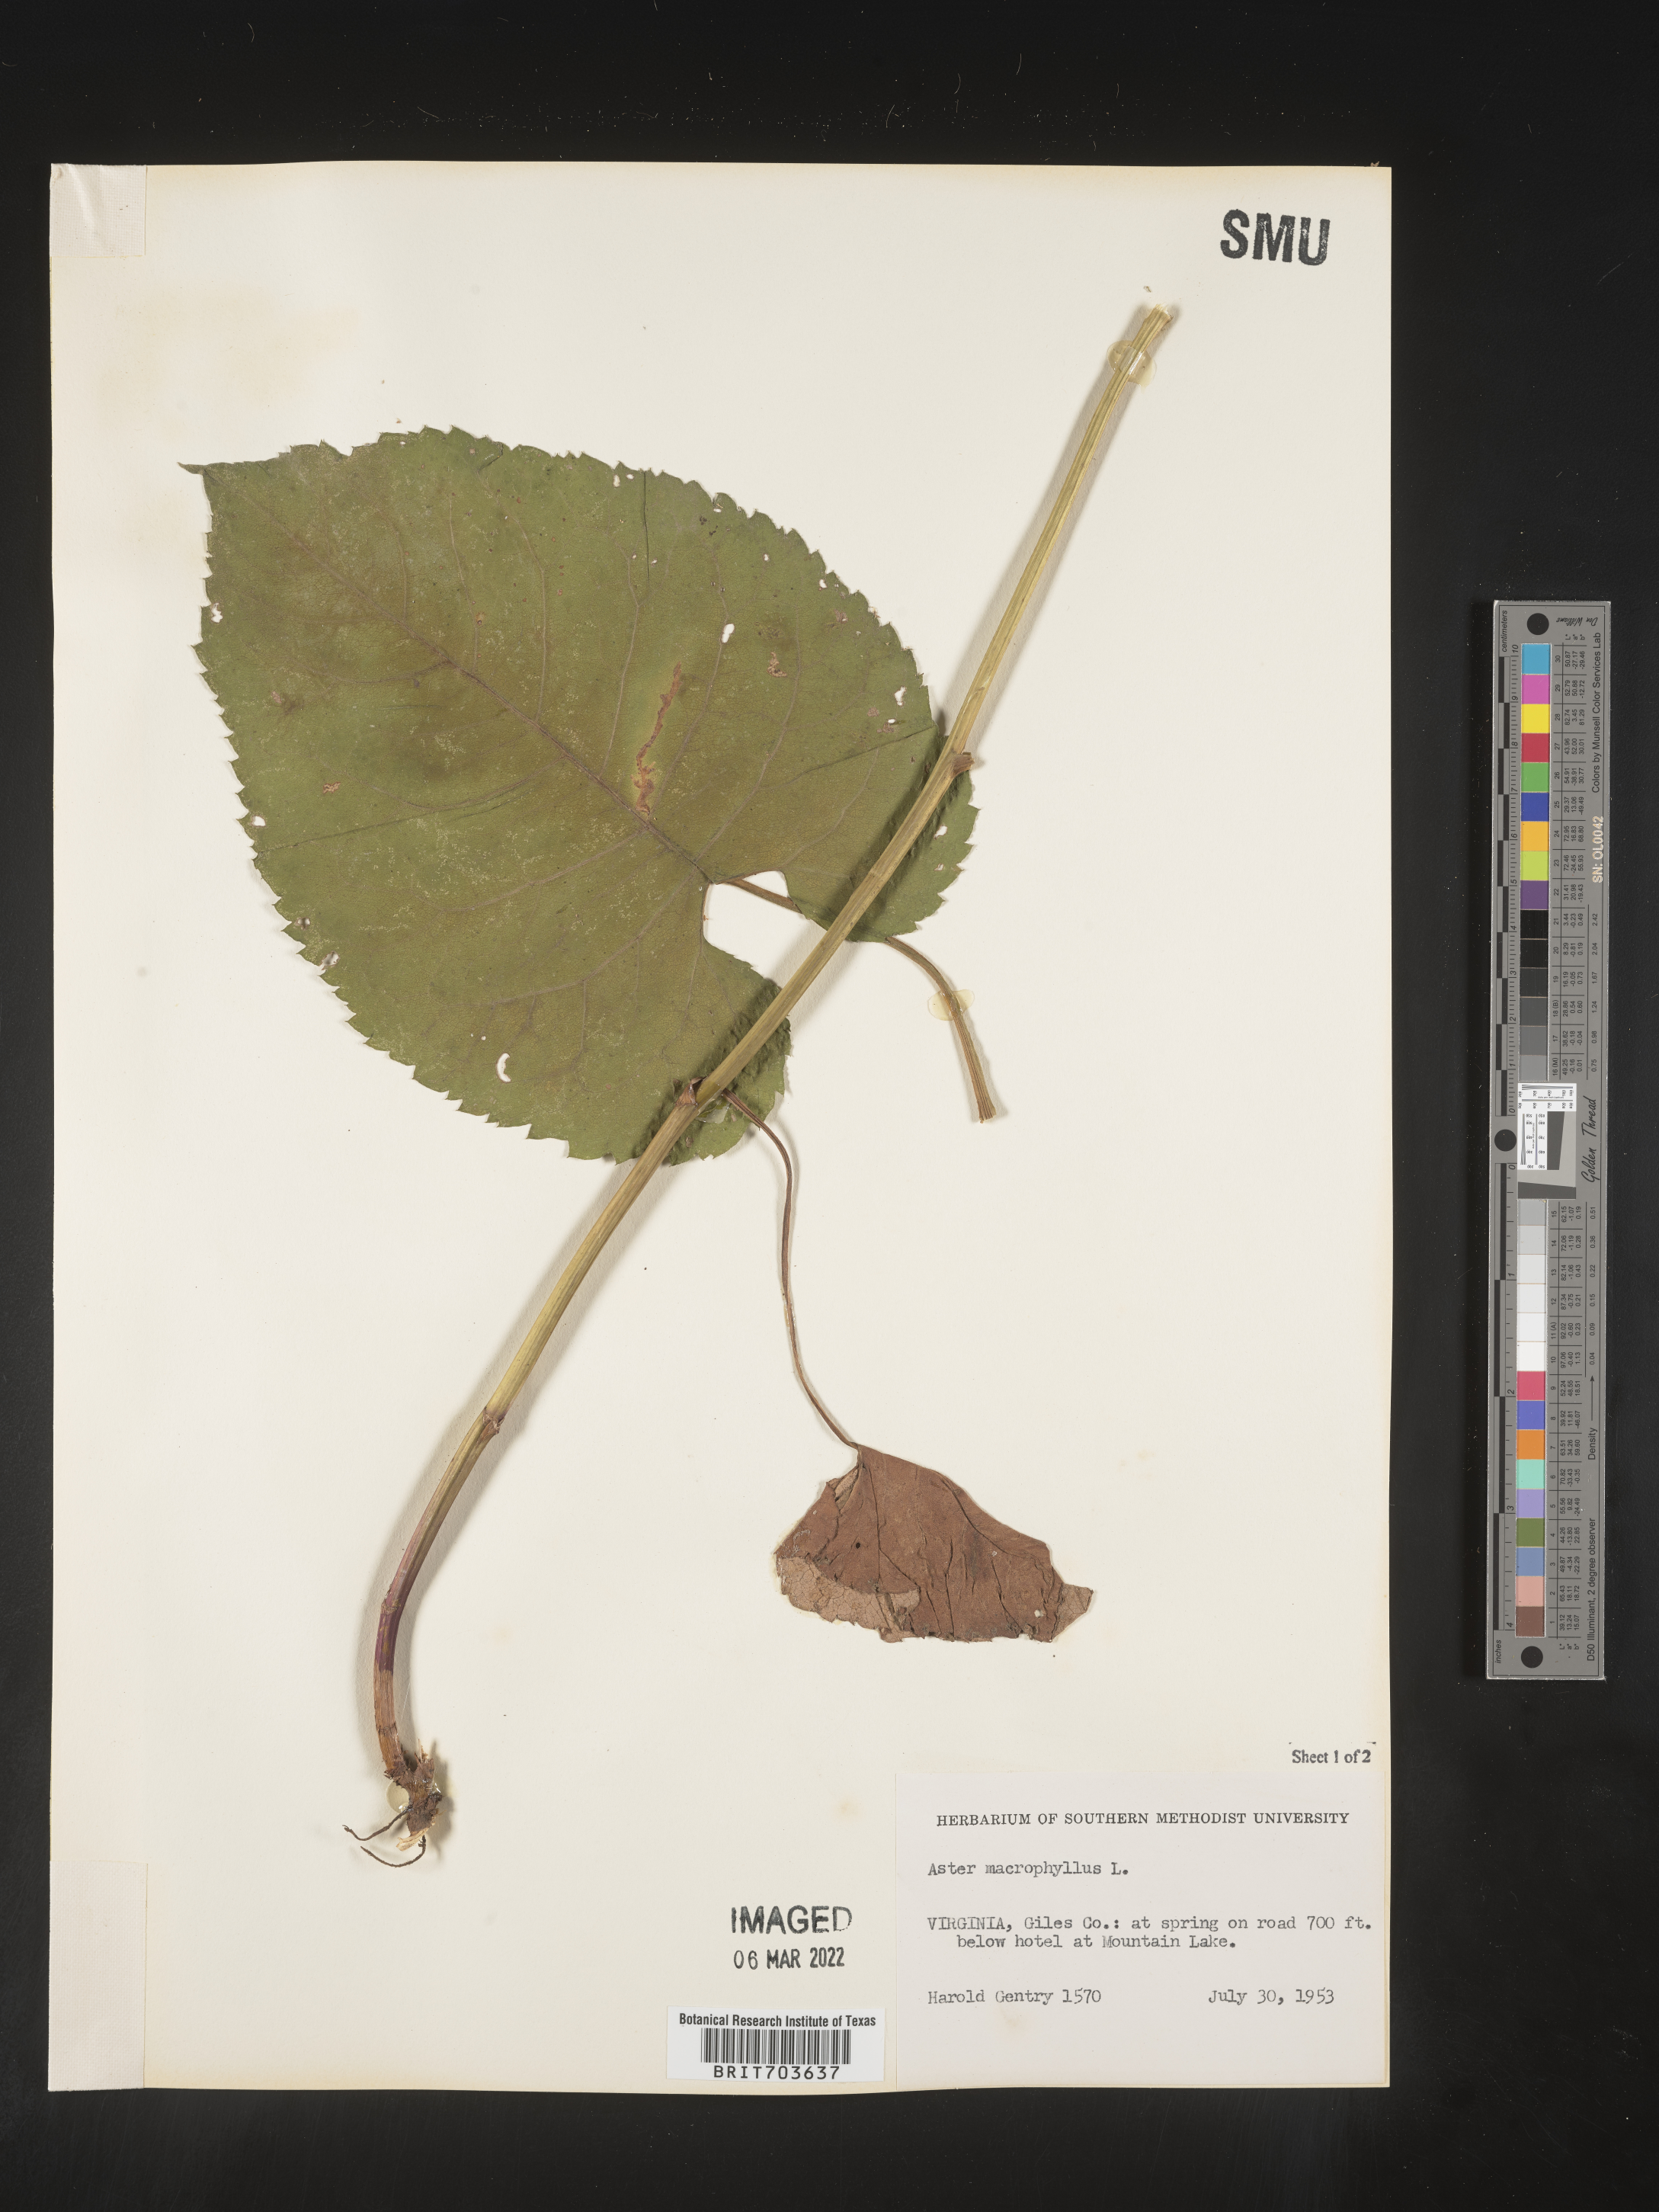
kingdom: Plantae
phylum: Tracheophyta
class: Magnoliopsida
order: Asterales
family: Asteraceae
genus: Eurybia
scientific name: Eurybia macrophylla
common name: Big-leaved aster
